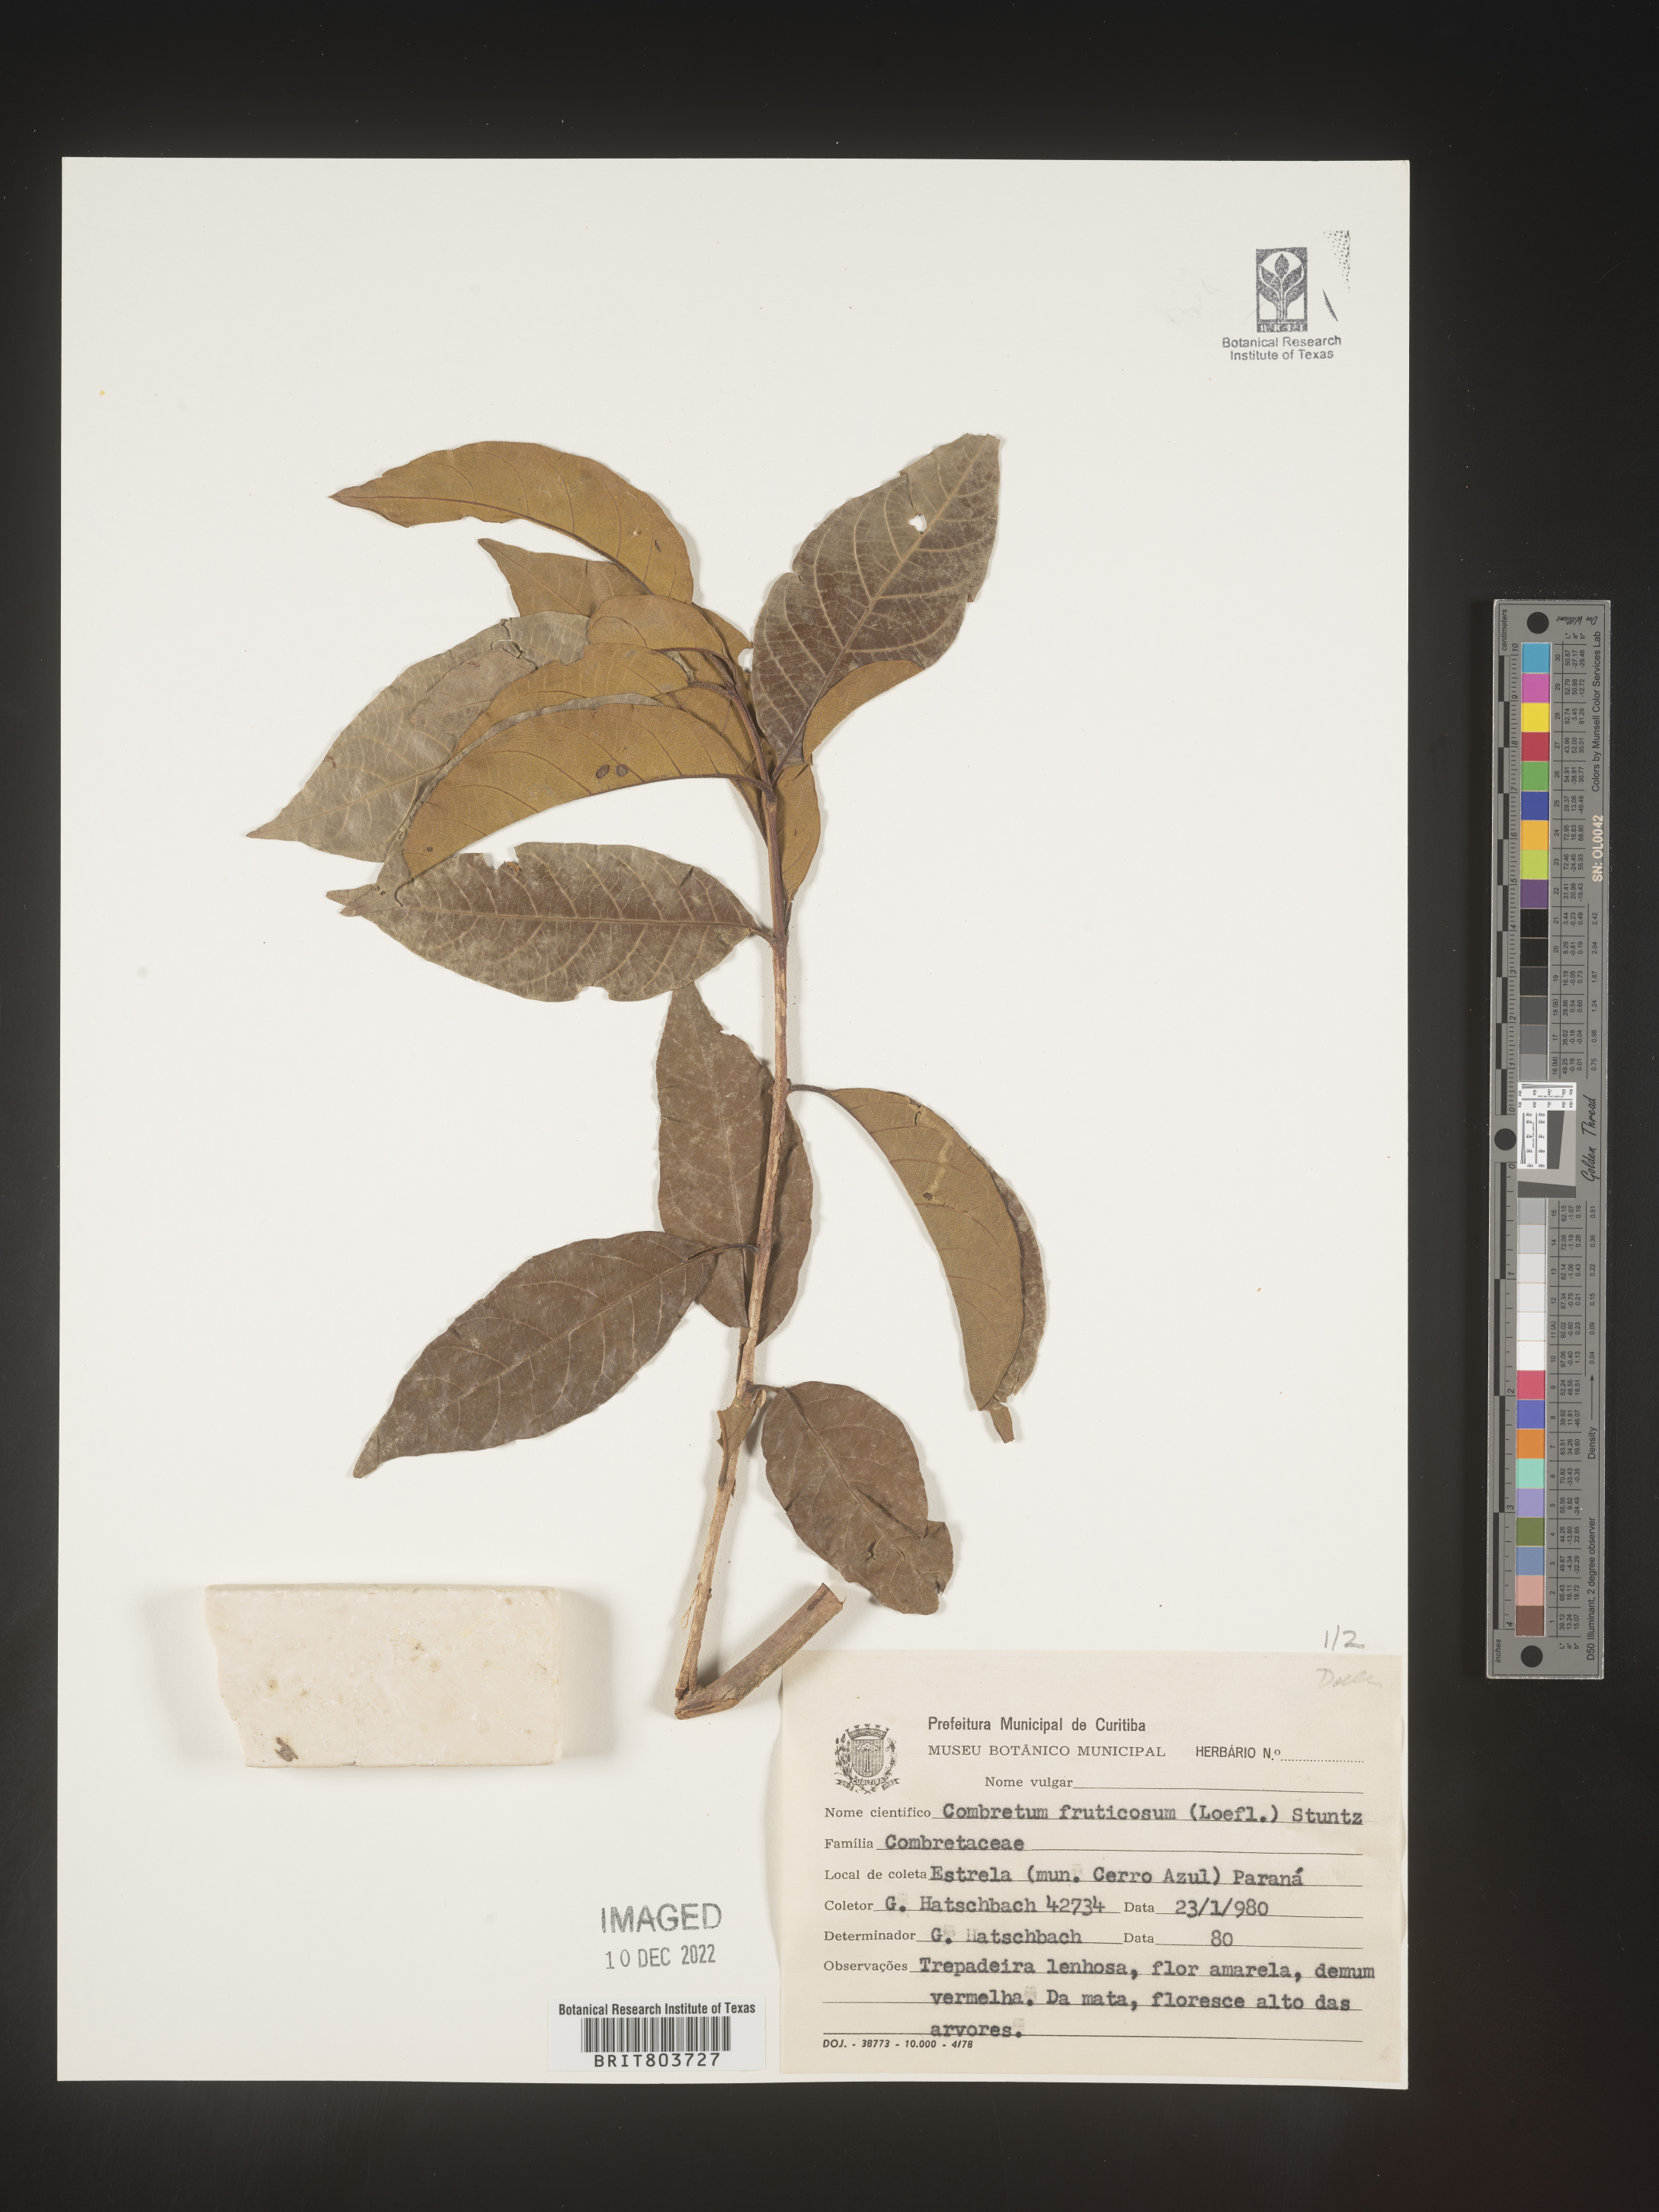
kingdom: Plantae
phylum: Tracheophyta
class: Magnoliopsida
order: Myrtales
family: Combretaceae
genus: Combretum
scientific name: Combretum
